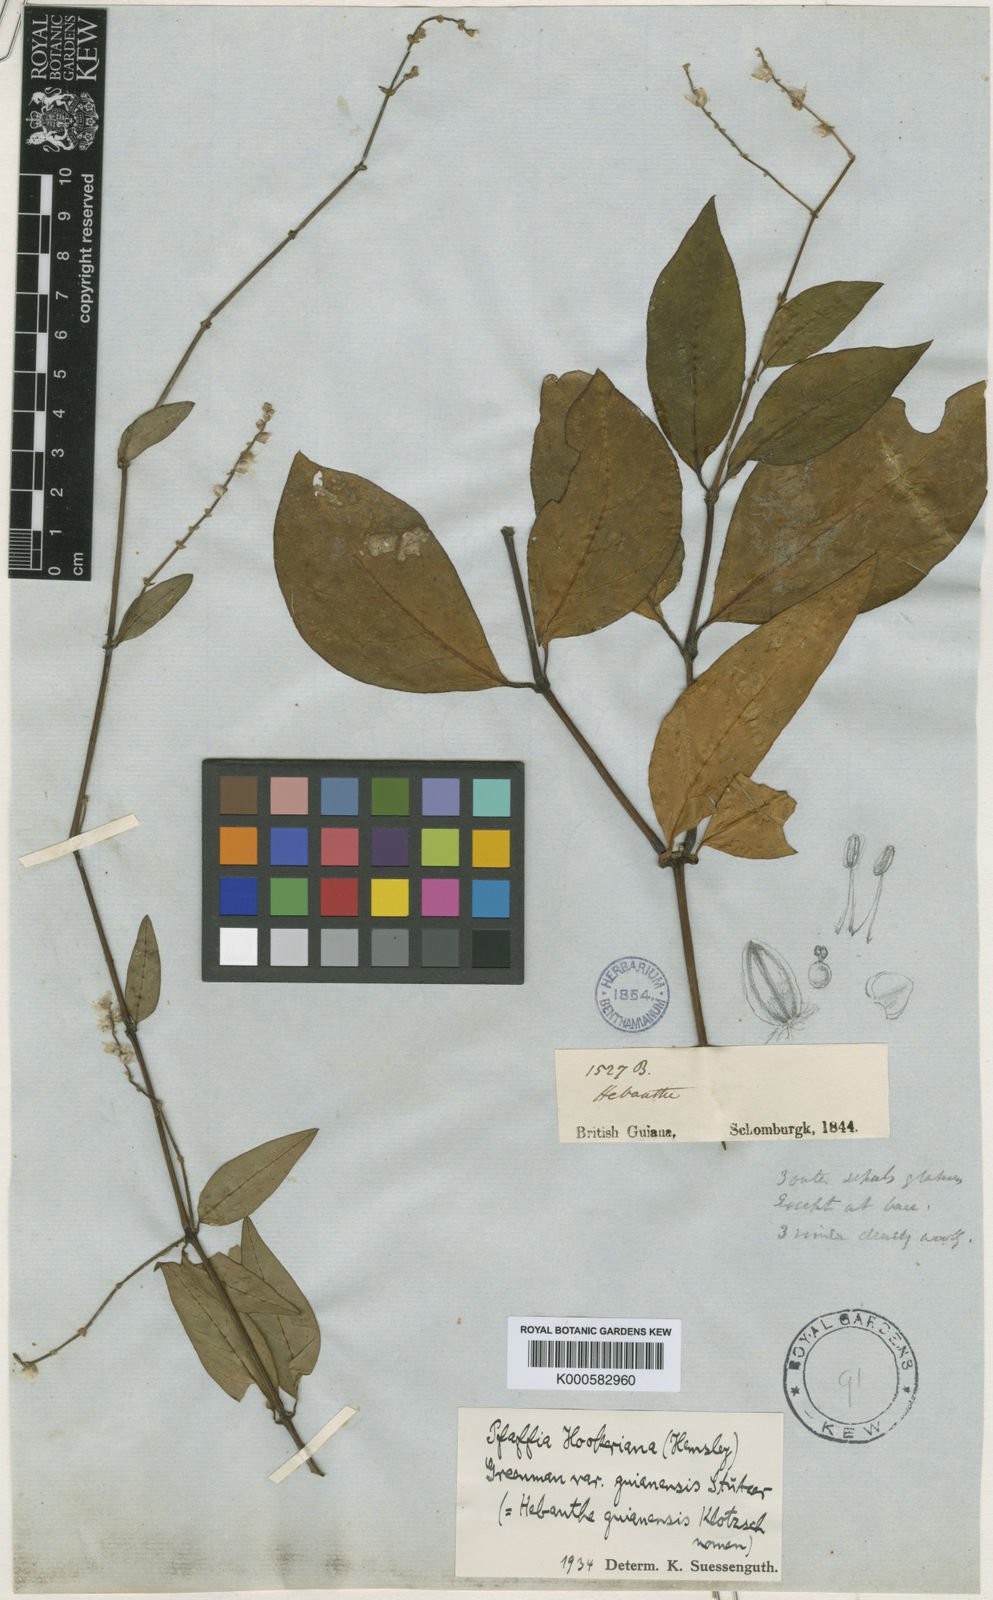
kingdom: Plantae
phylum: Tracheophyta
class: Magnoliopsida
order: Caryophyllales
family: Amaranthaceae
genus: Hebanthe
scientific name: Hebanthe grandiflora
